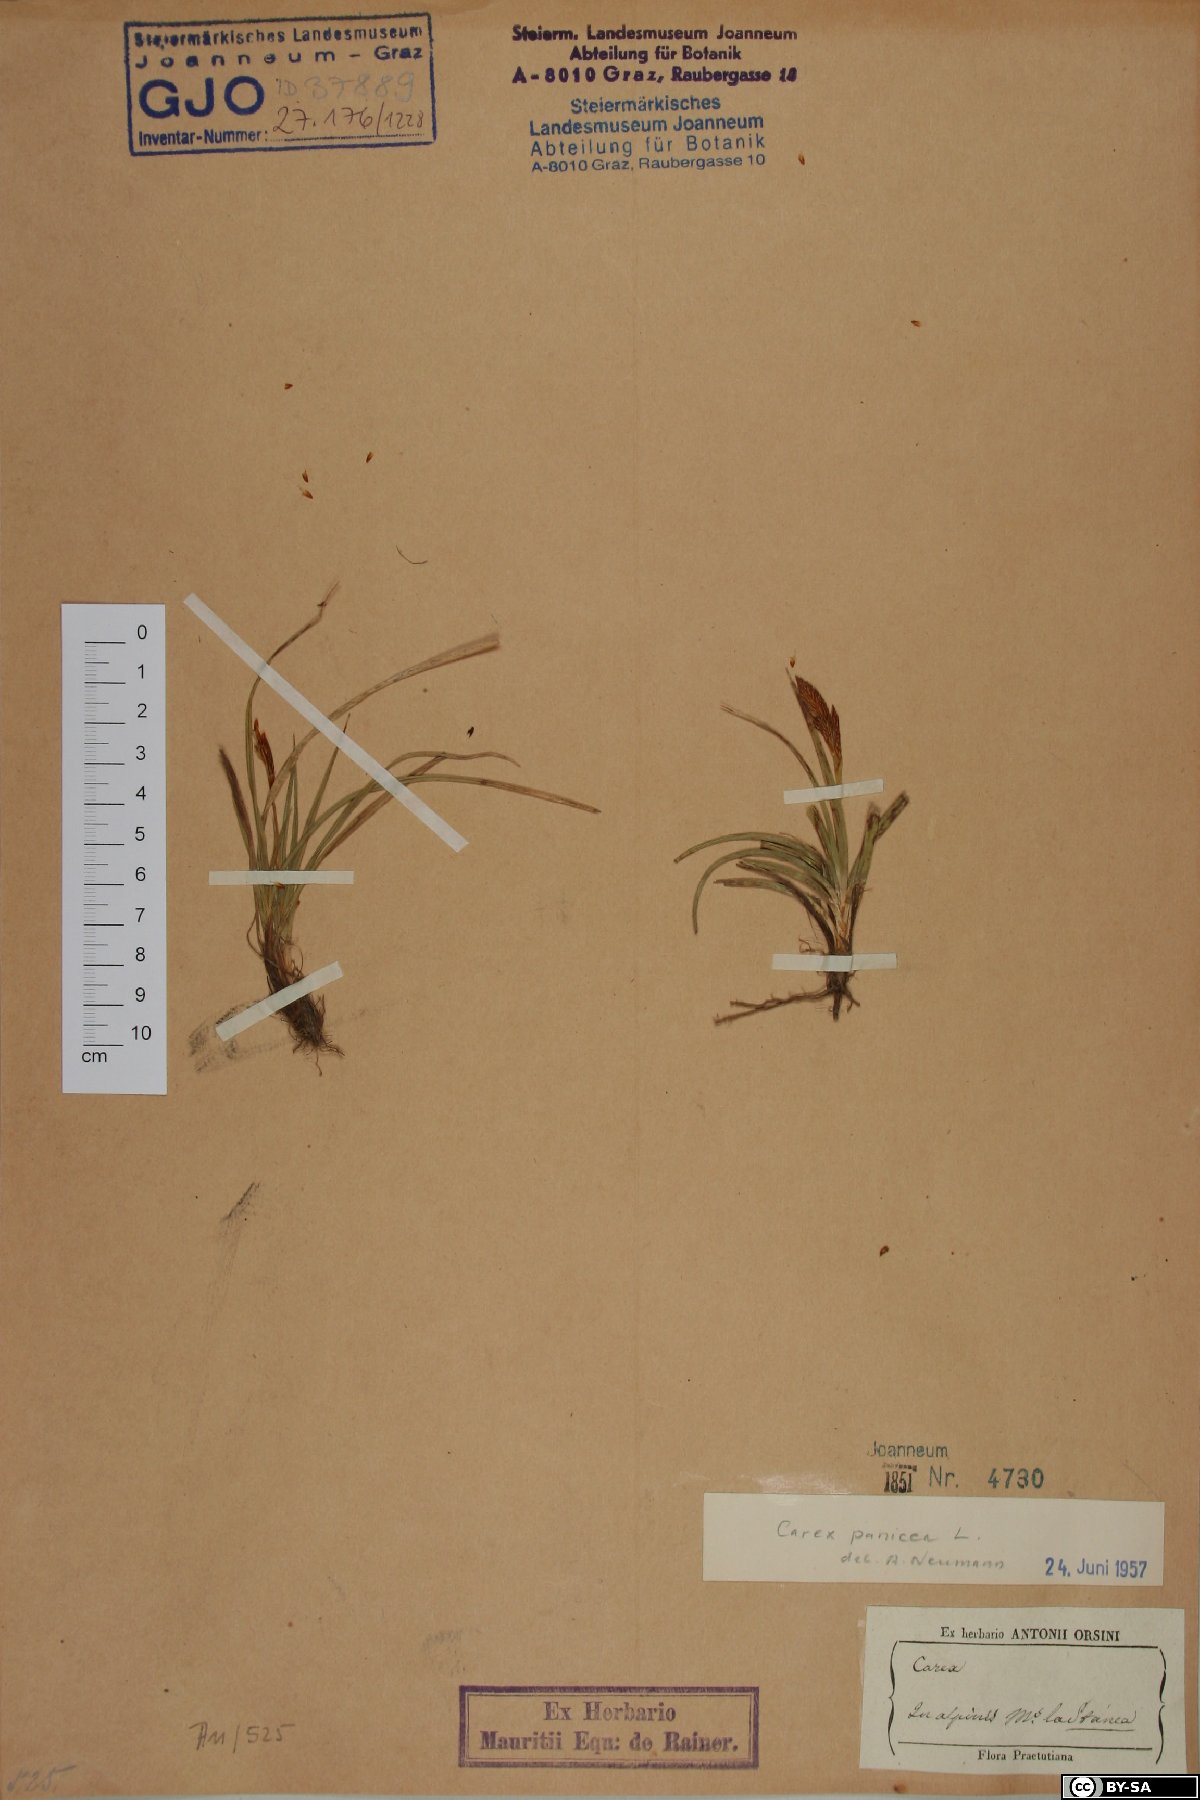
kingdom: Plantae
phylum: Tracheophyta
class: Liliopsida
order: Poales
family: Cyperaceae
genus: Carex
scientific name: Carex panicea
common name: Carnation sedge
